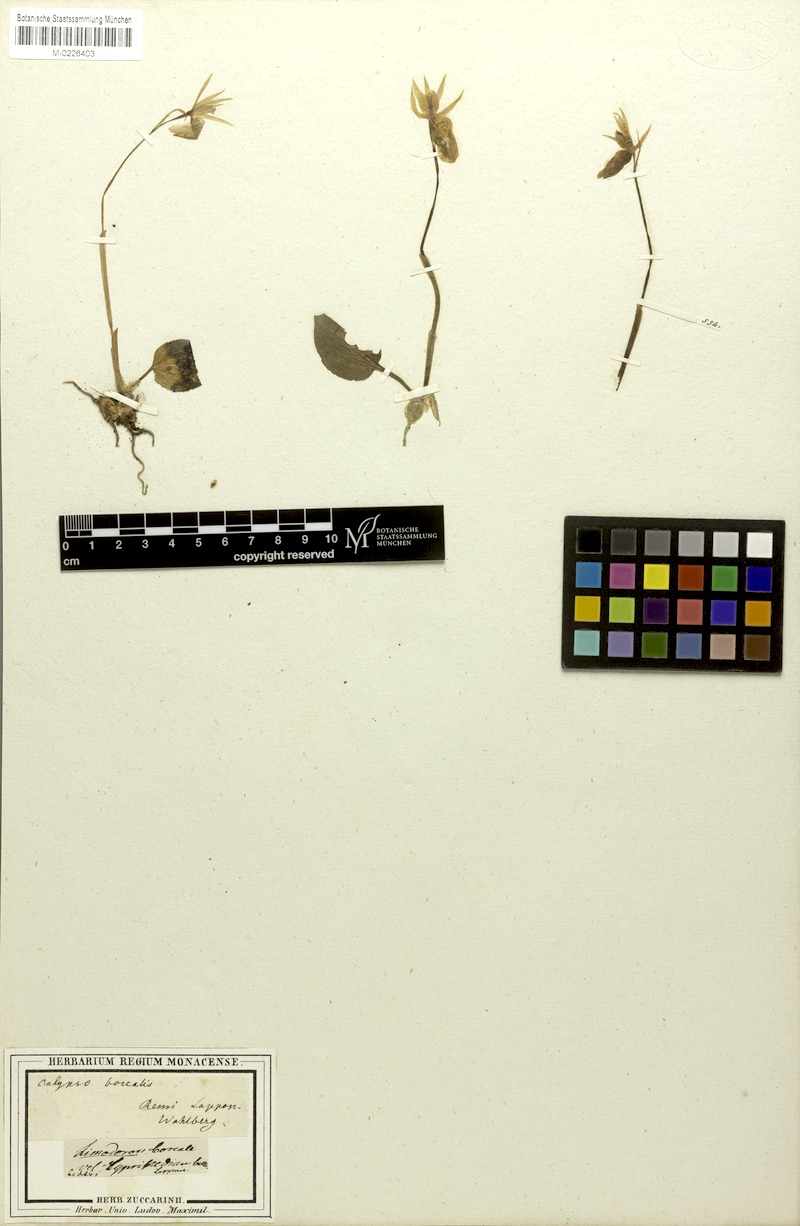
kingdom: Plantae
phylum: Tracheophyta
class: Liliopsida
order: Asparagales
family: Orchidaceae
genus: Calypso
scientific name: Calypso bulbosa
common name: Calypso
